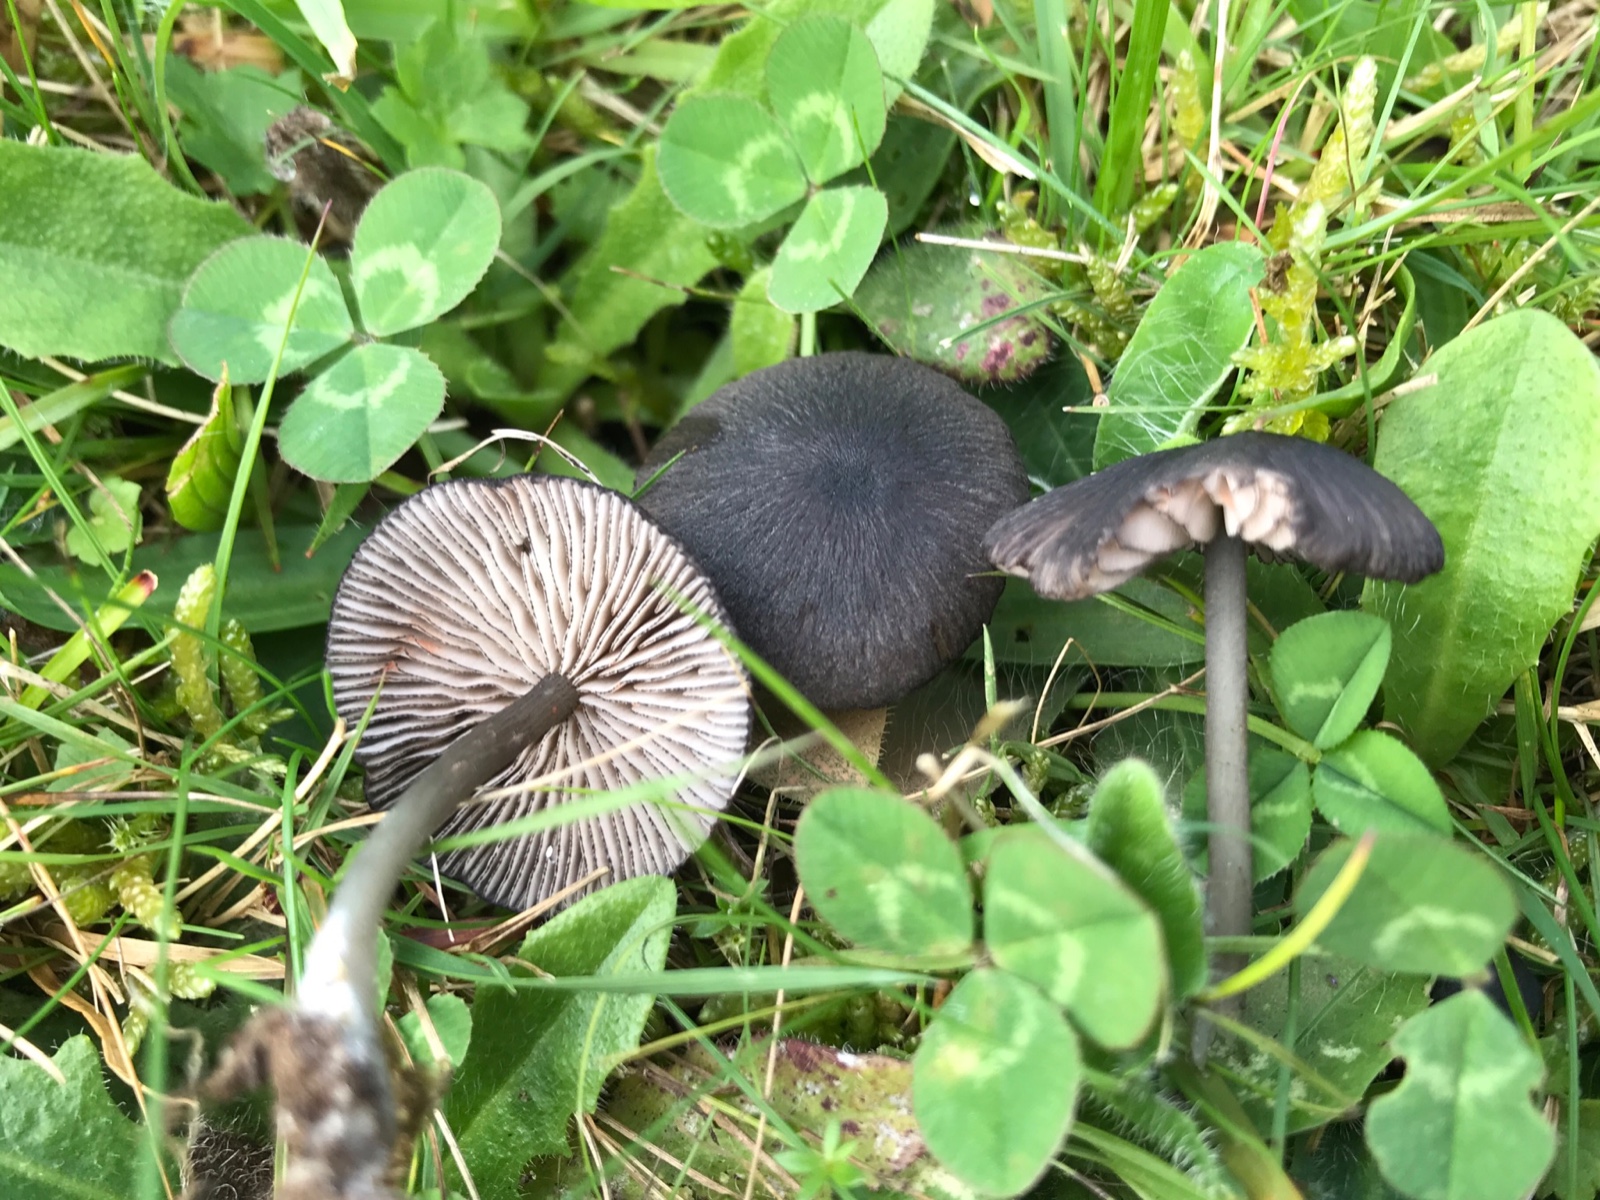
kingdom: Fungi
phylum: Basidiomycota
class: Agaricomycetes
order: Agaricales
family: Entolomataceae
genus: Entoloma
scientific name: Entoloma
